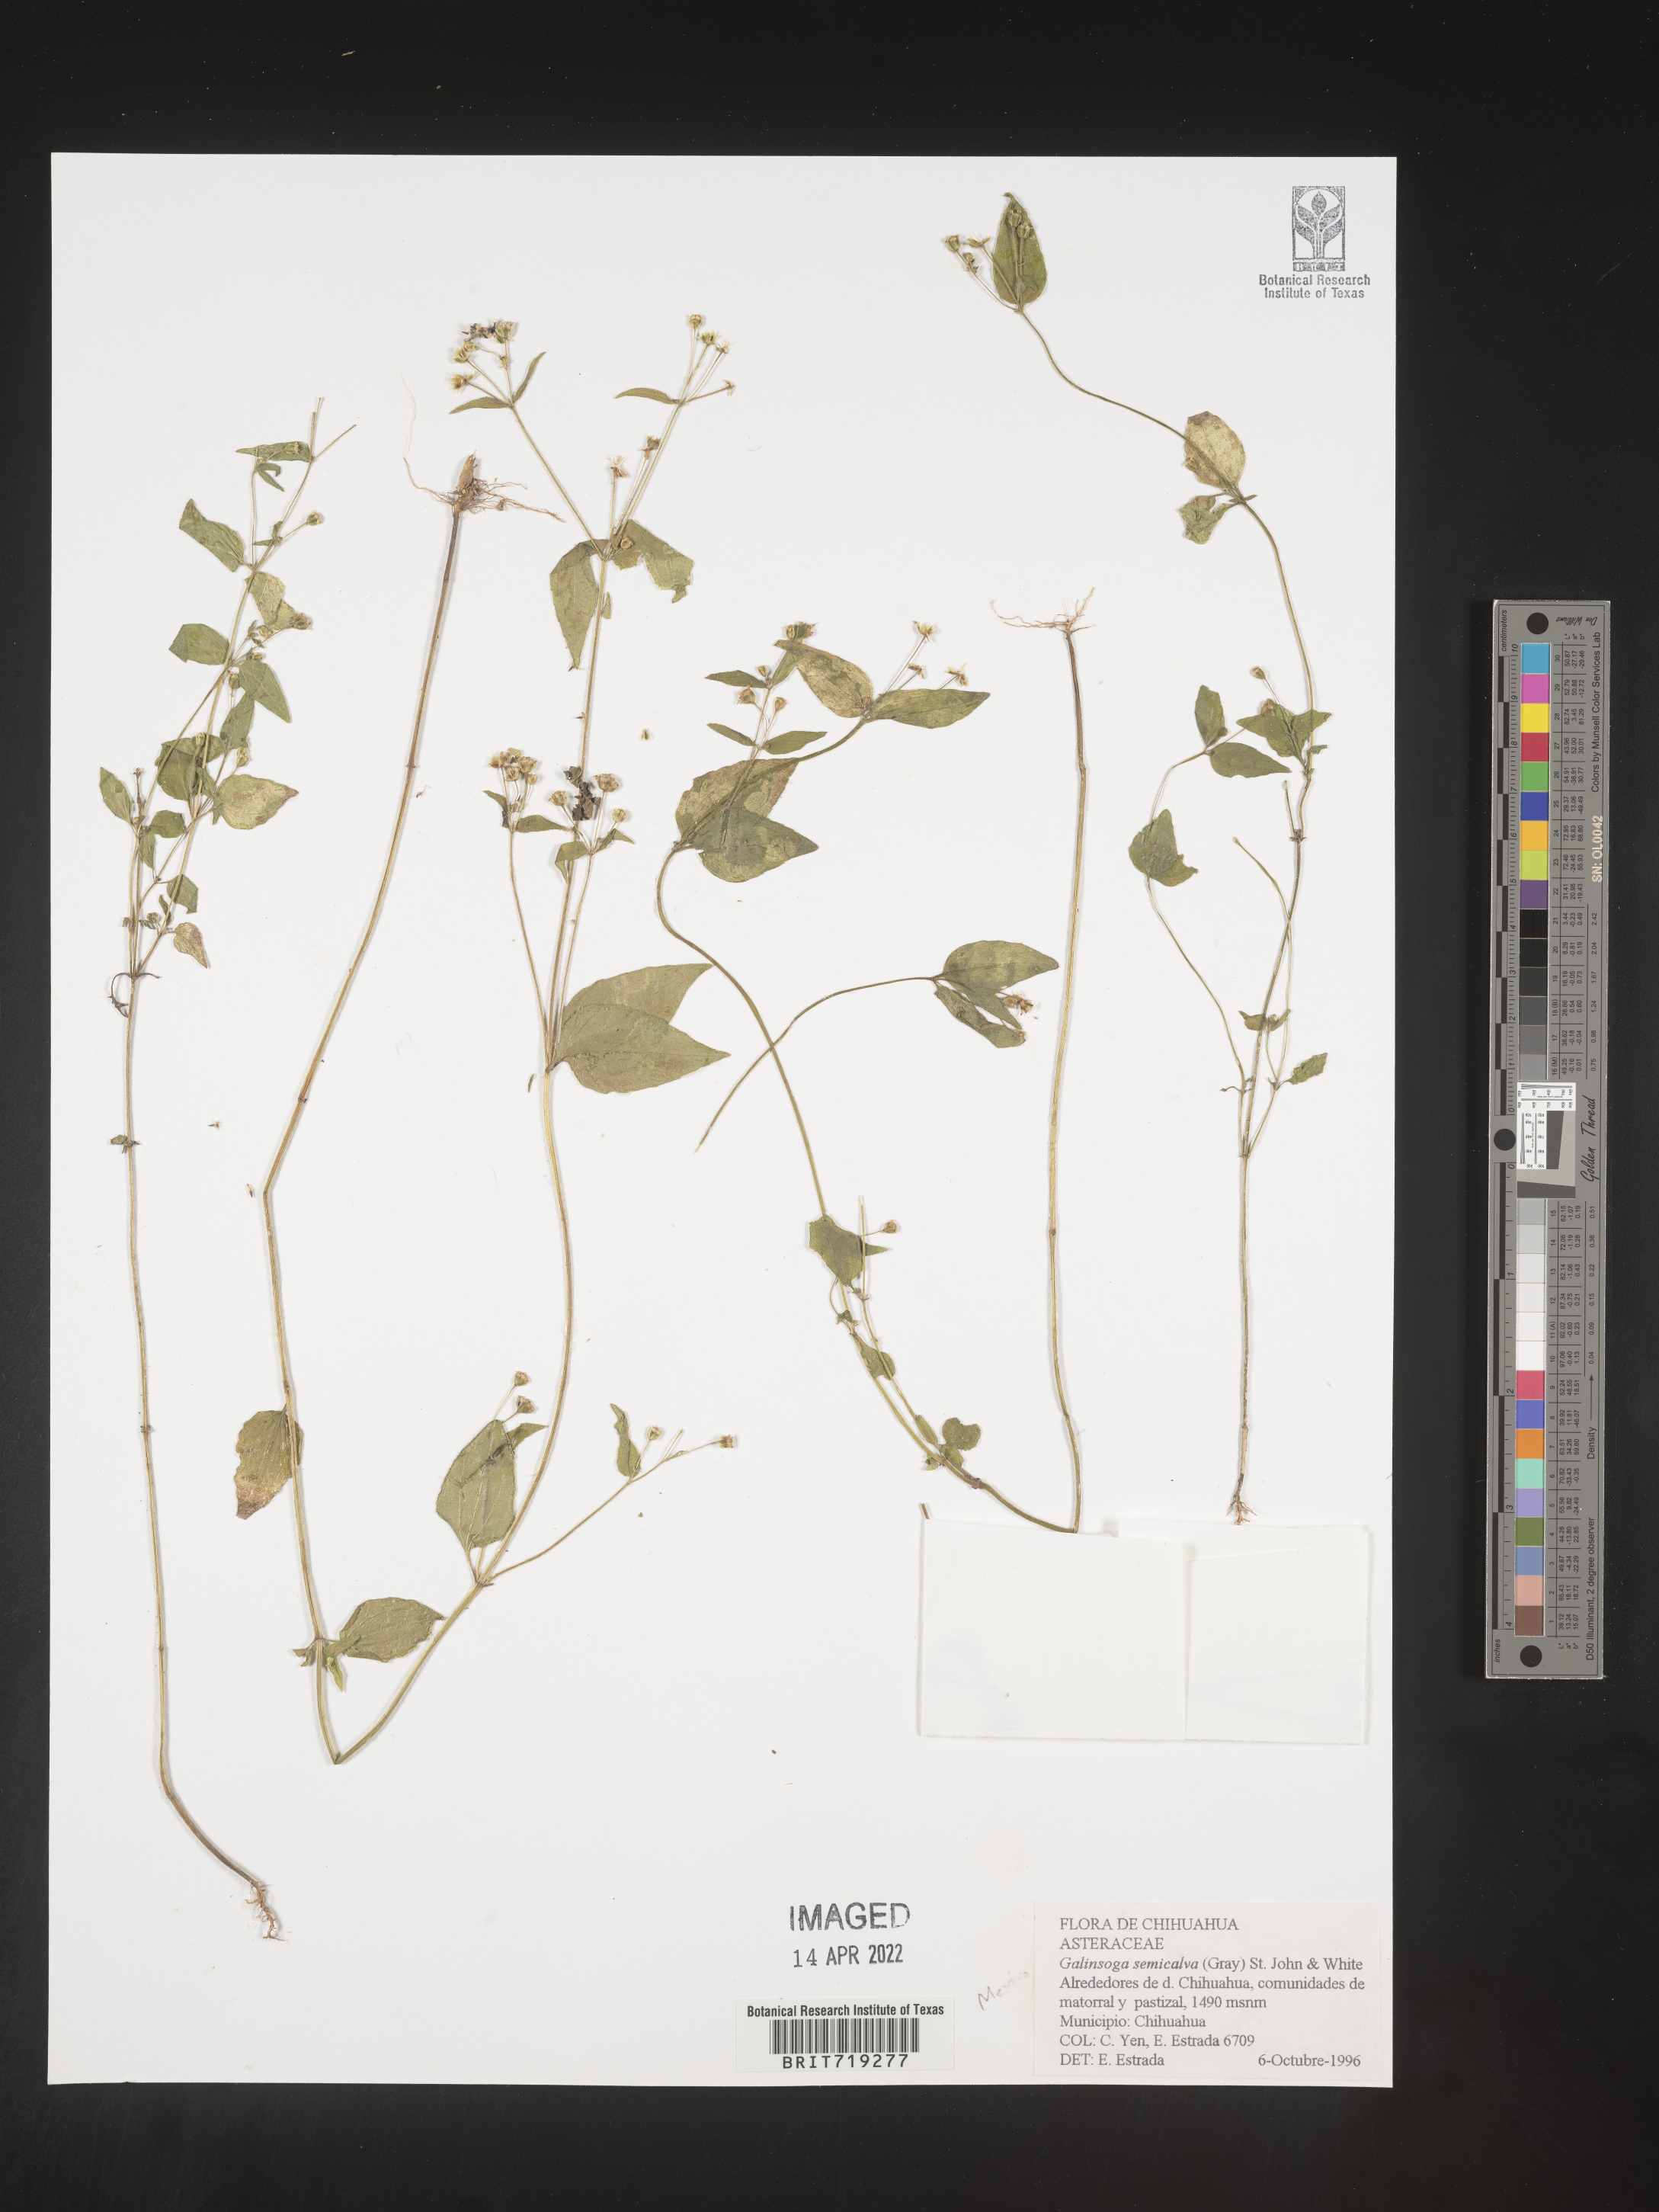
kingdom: Plantae
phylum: Tracheophyta
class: Magnoliopsida
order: Asterales
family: Asteraceae
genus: Galinsoga
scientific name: Galinsoga
